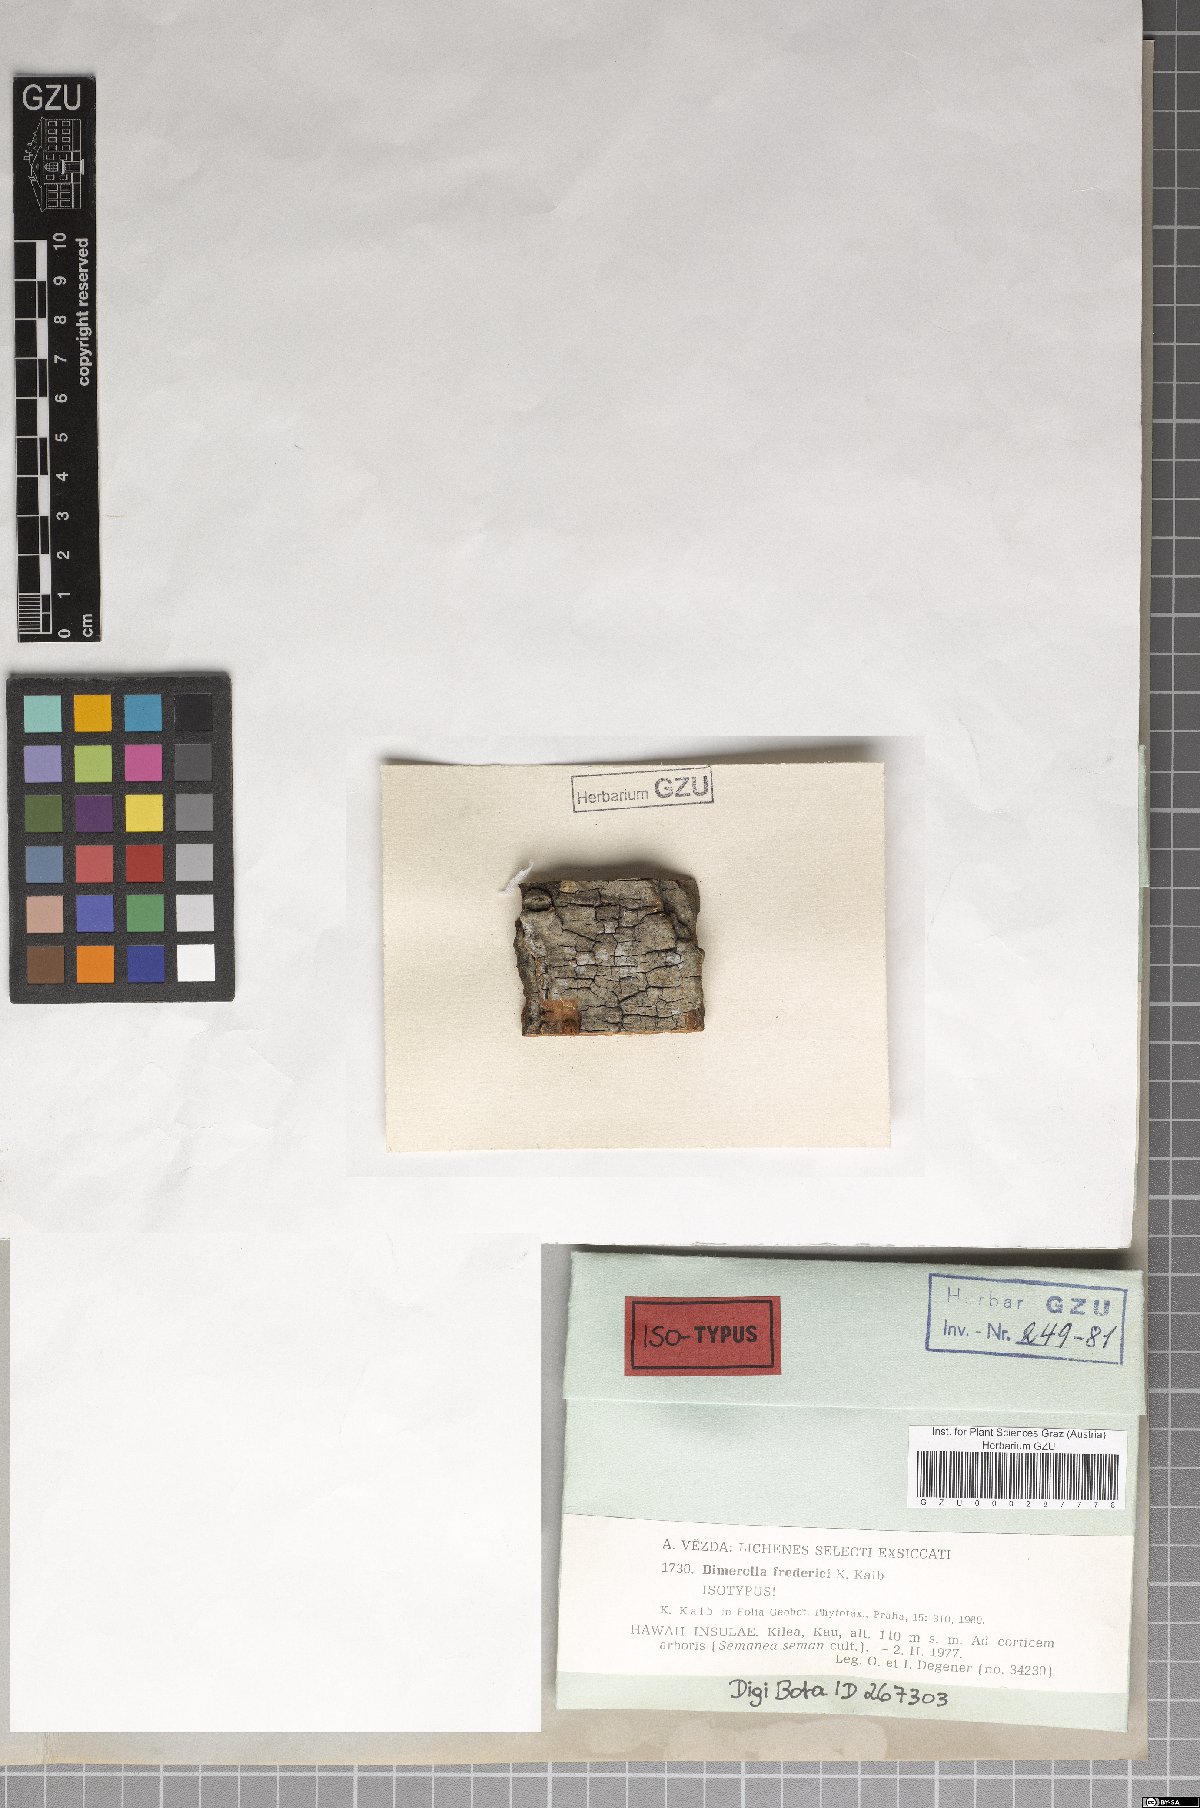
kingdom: Fungi
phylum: Ascomycota
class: Lecanoromycetes
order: Gyalectales
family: Gyalectaceae
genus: Dimerella
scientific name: Dimerella fredrici
